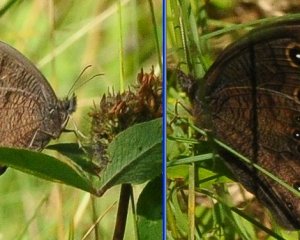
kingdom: Animalia
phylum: Arthropoda
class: Insecta
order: Lepidoptera
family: Nymphalidae
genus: Cercyonis
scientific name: Cercyonis pegala
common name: Common Wood-Nymph
